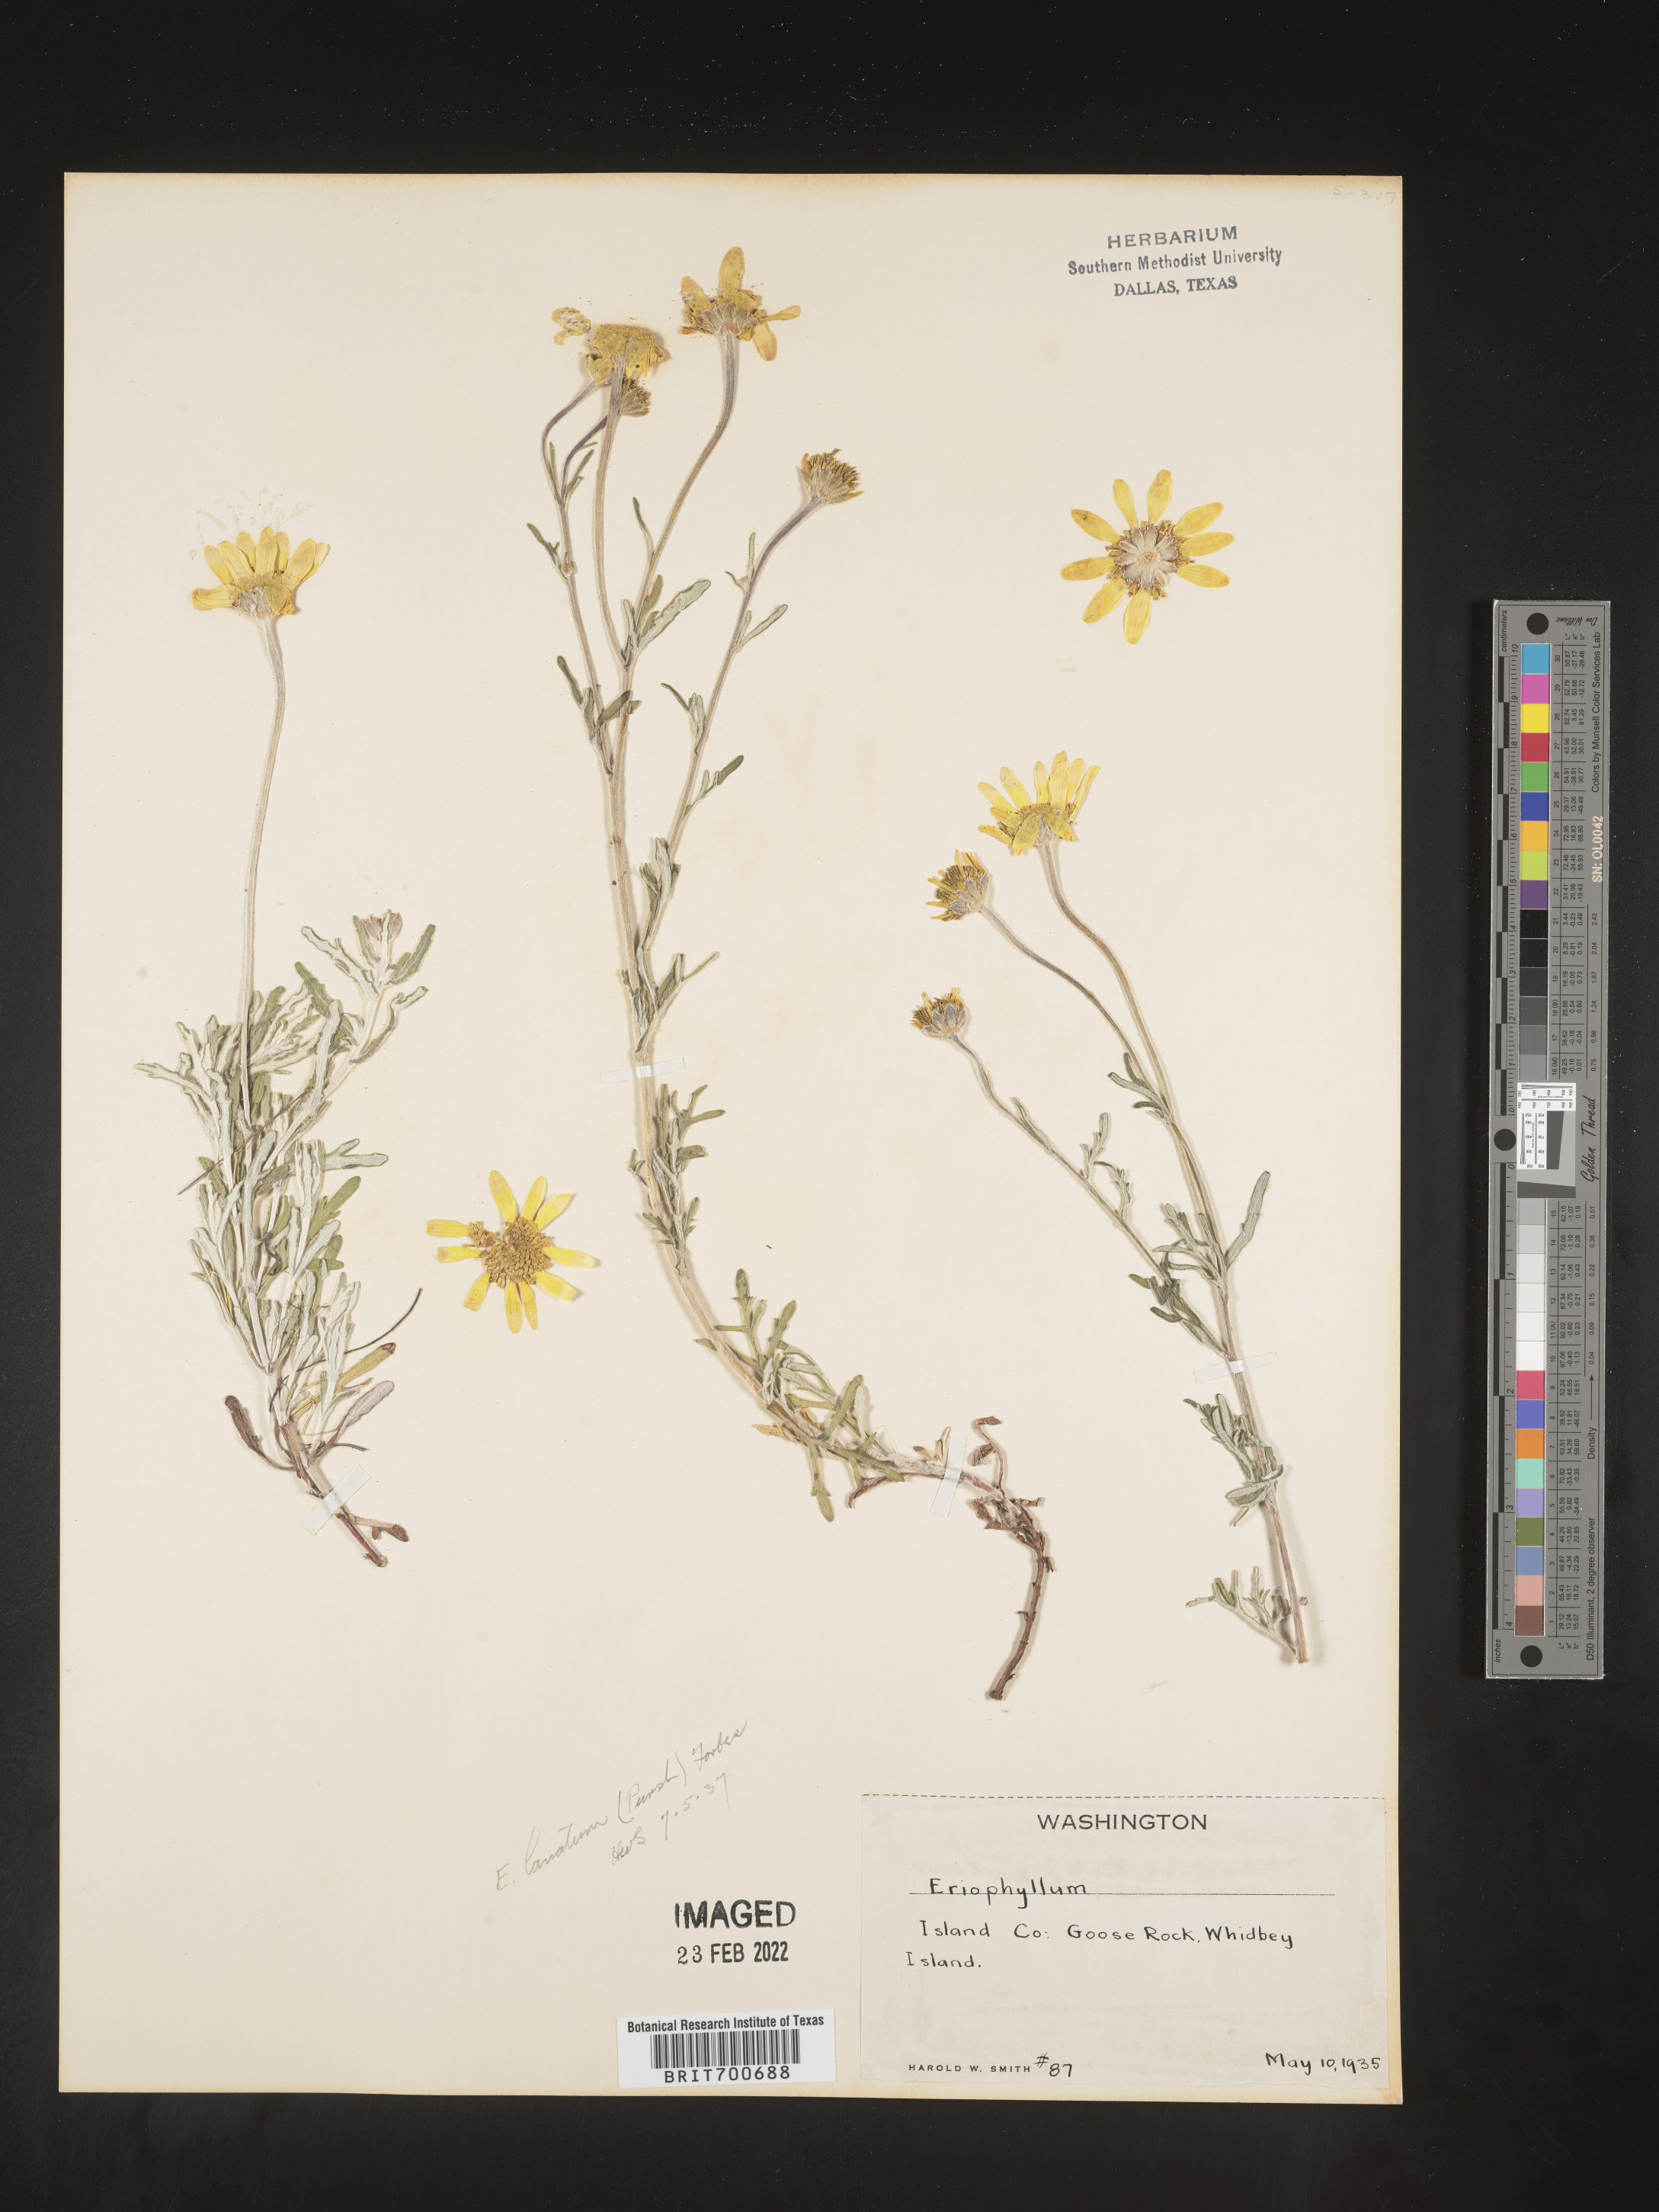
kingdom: Plantae
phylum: Tracheophyta
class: Magnoliopsida
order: Asterales
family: Asteraceae
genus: Eriophyllum
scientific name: Eriophyllum lanatum
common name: Common woolly-sunflower
